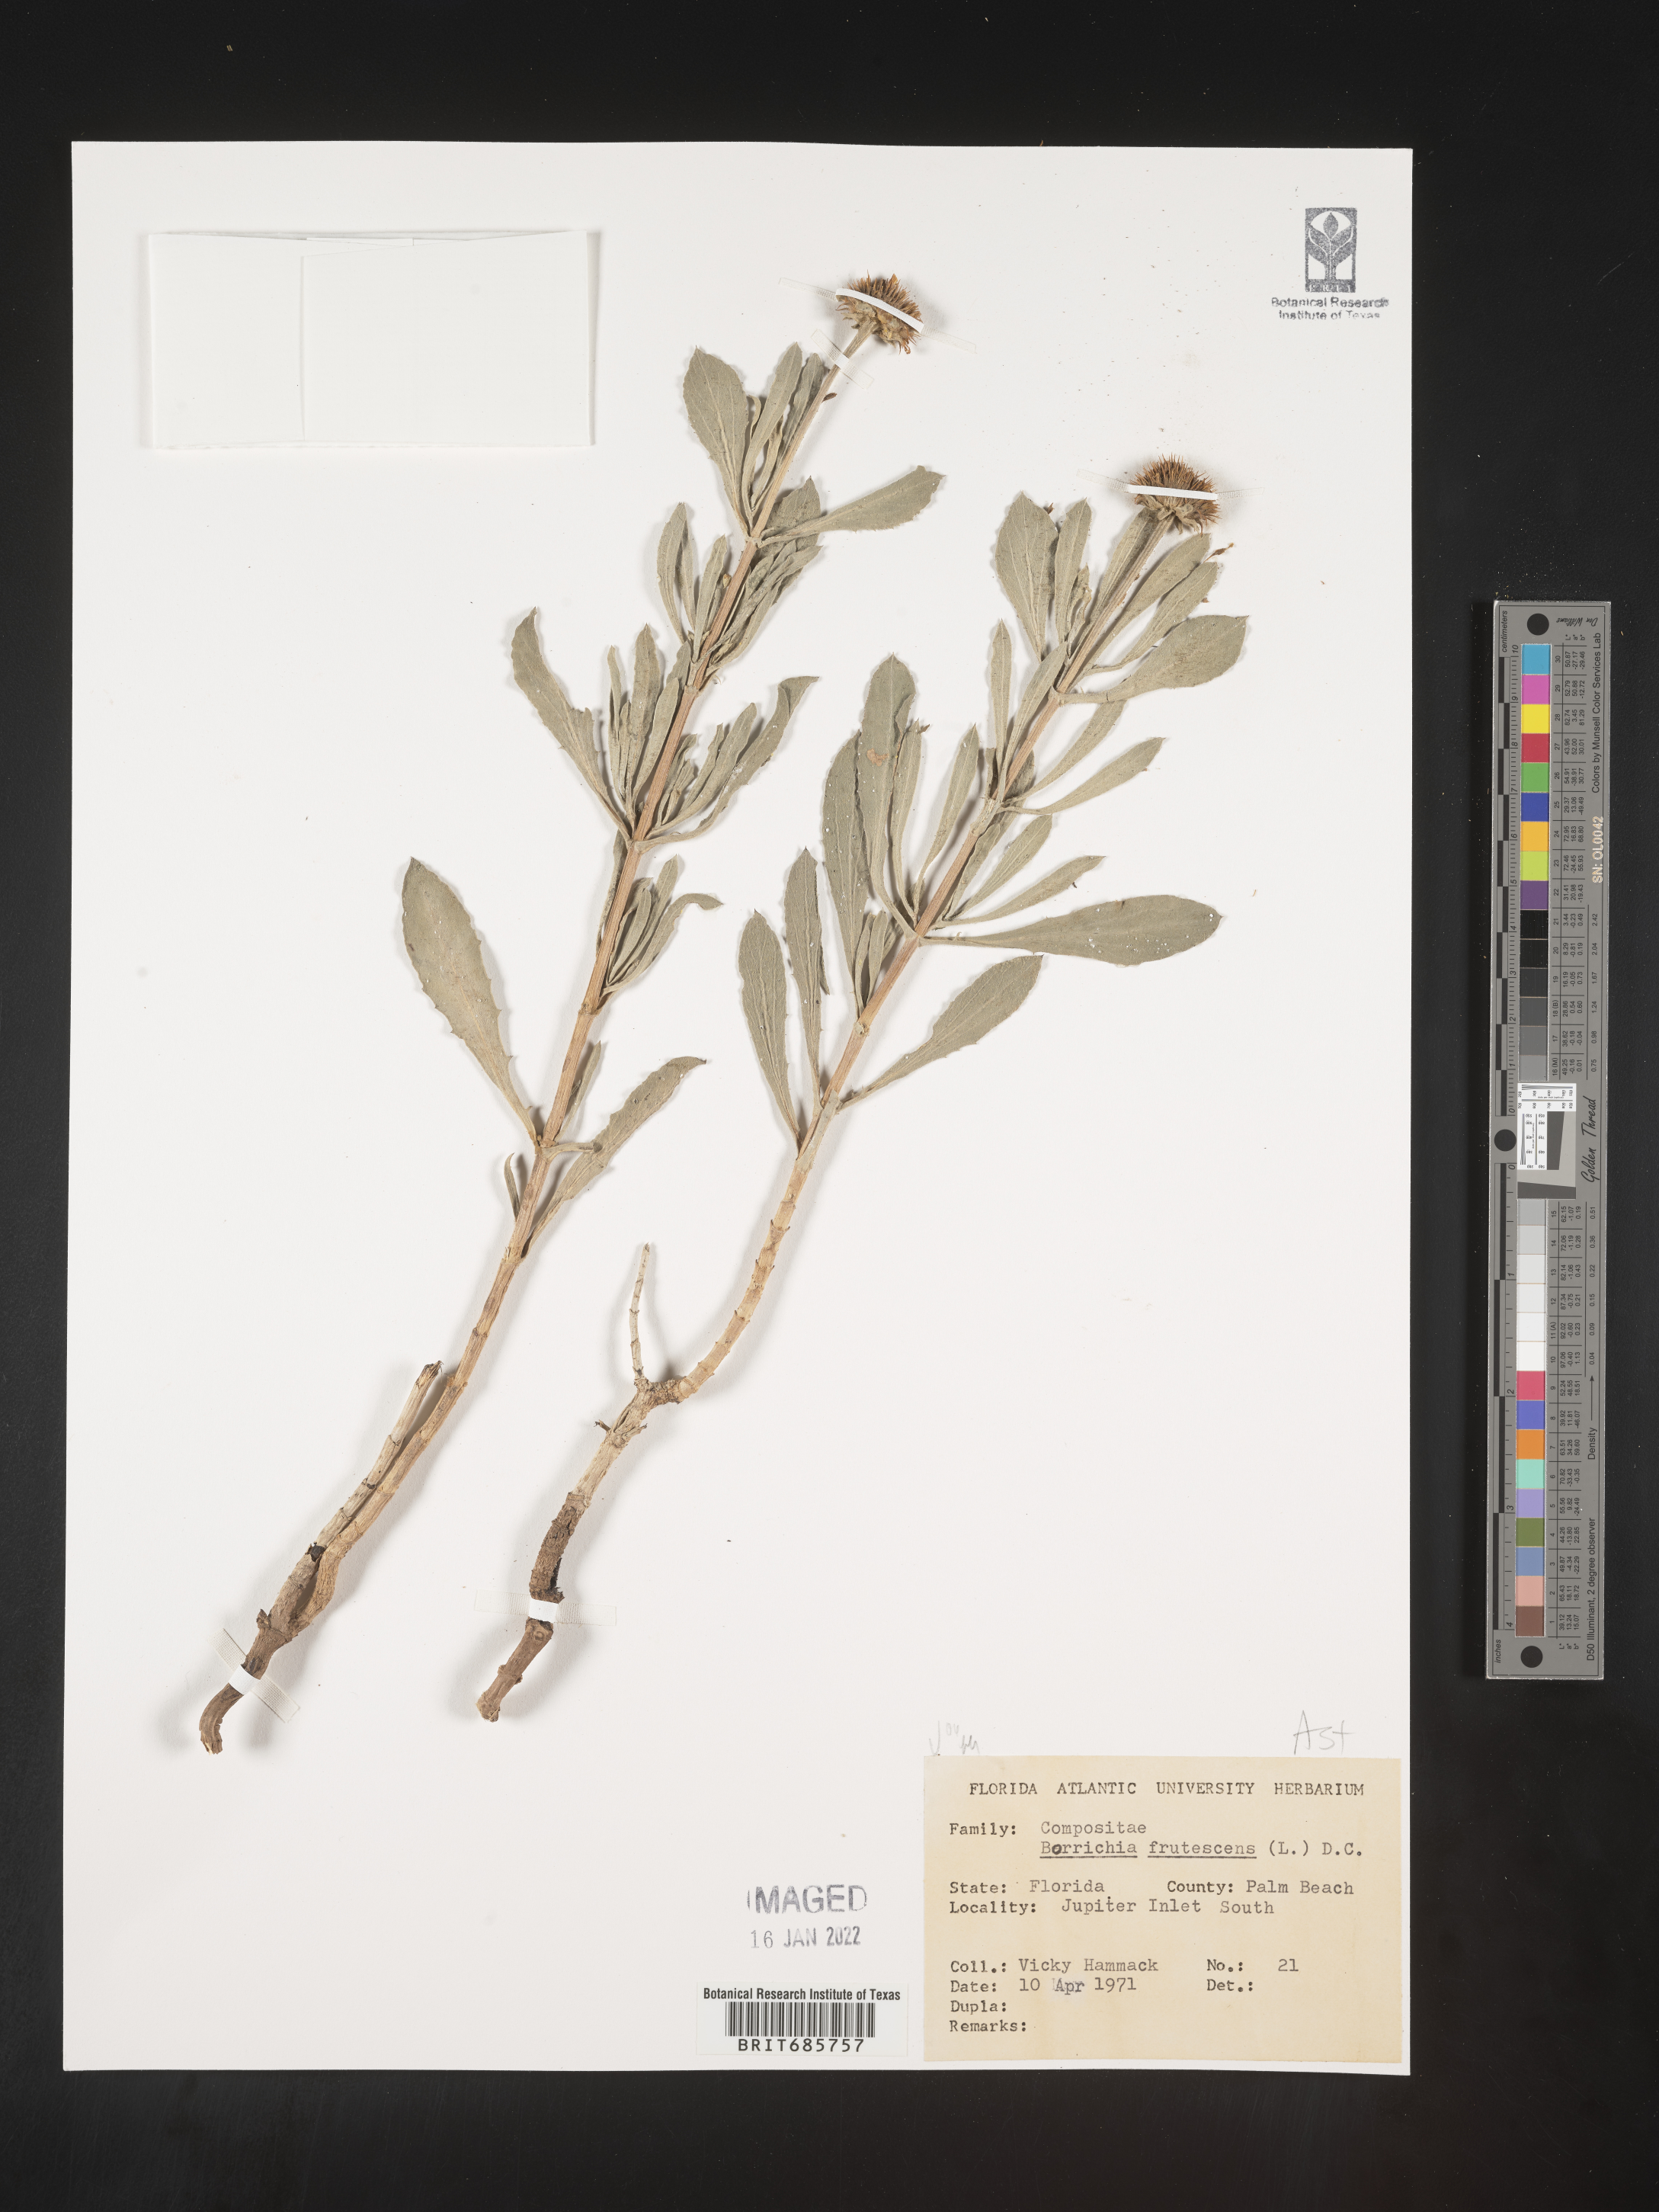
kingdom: Plantae
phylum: Tracheophyta
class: Magnoliopsida
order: Asterales
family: Asteraceae
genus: Borrichia
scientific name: Borrichia frutescens
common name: Sea oxeye
